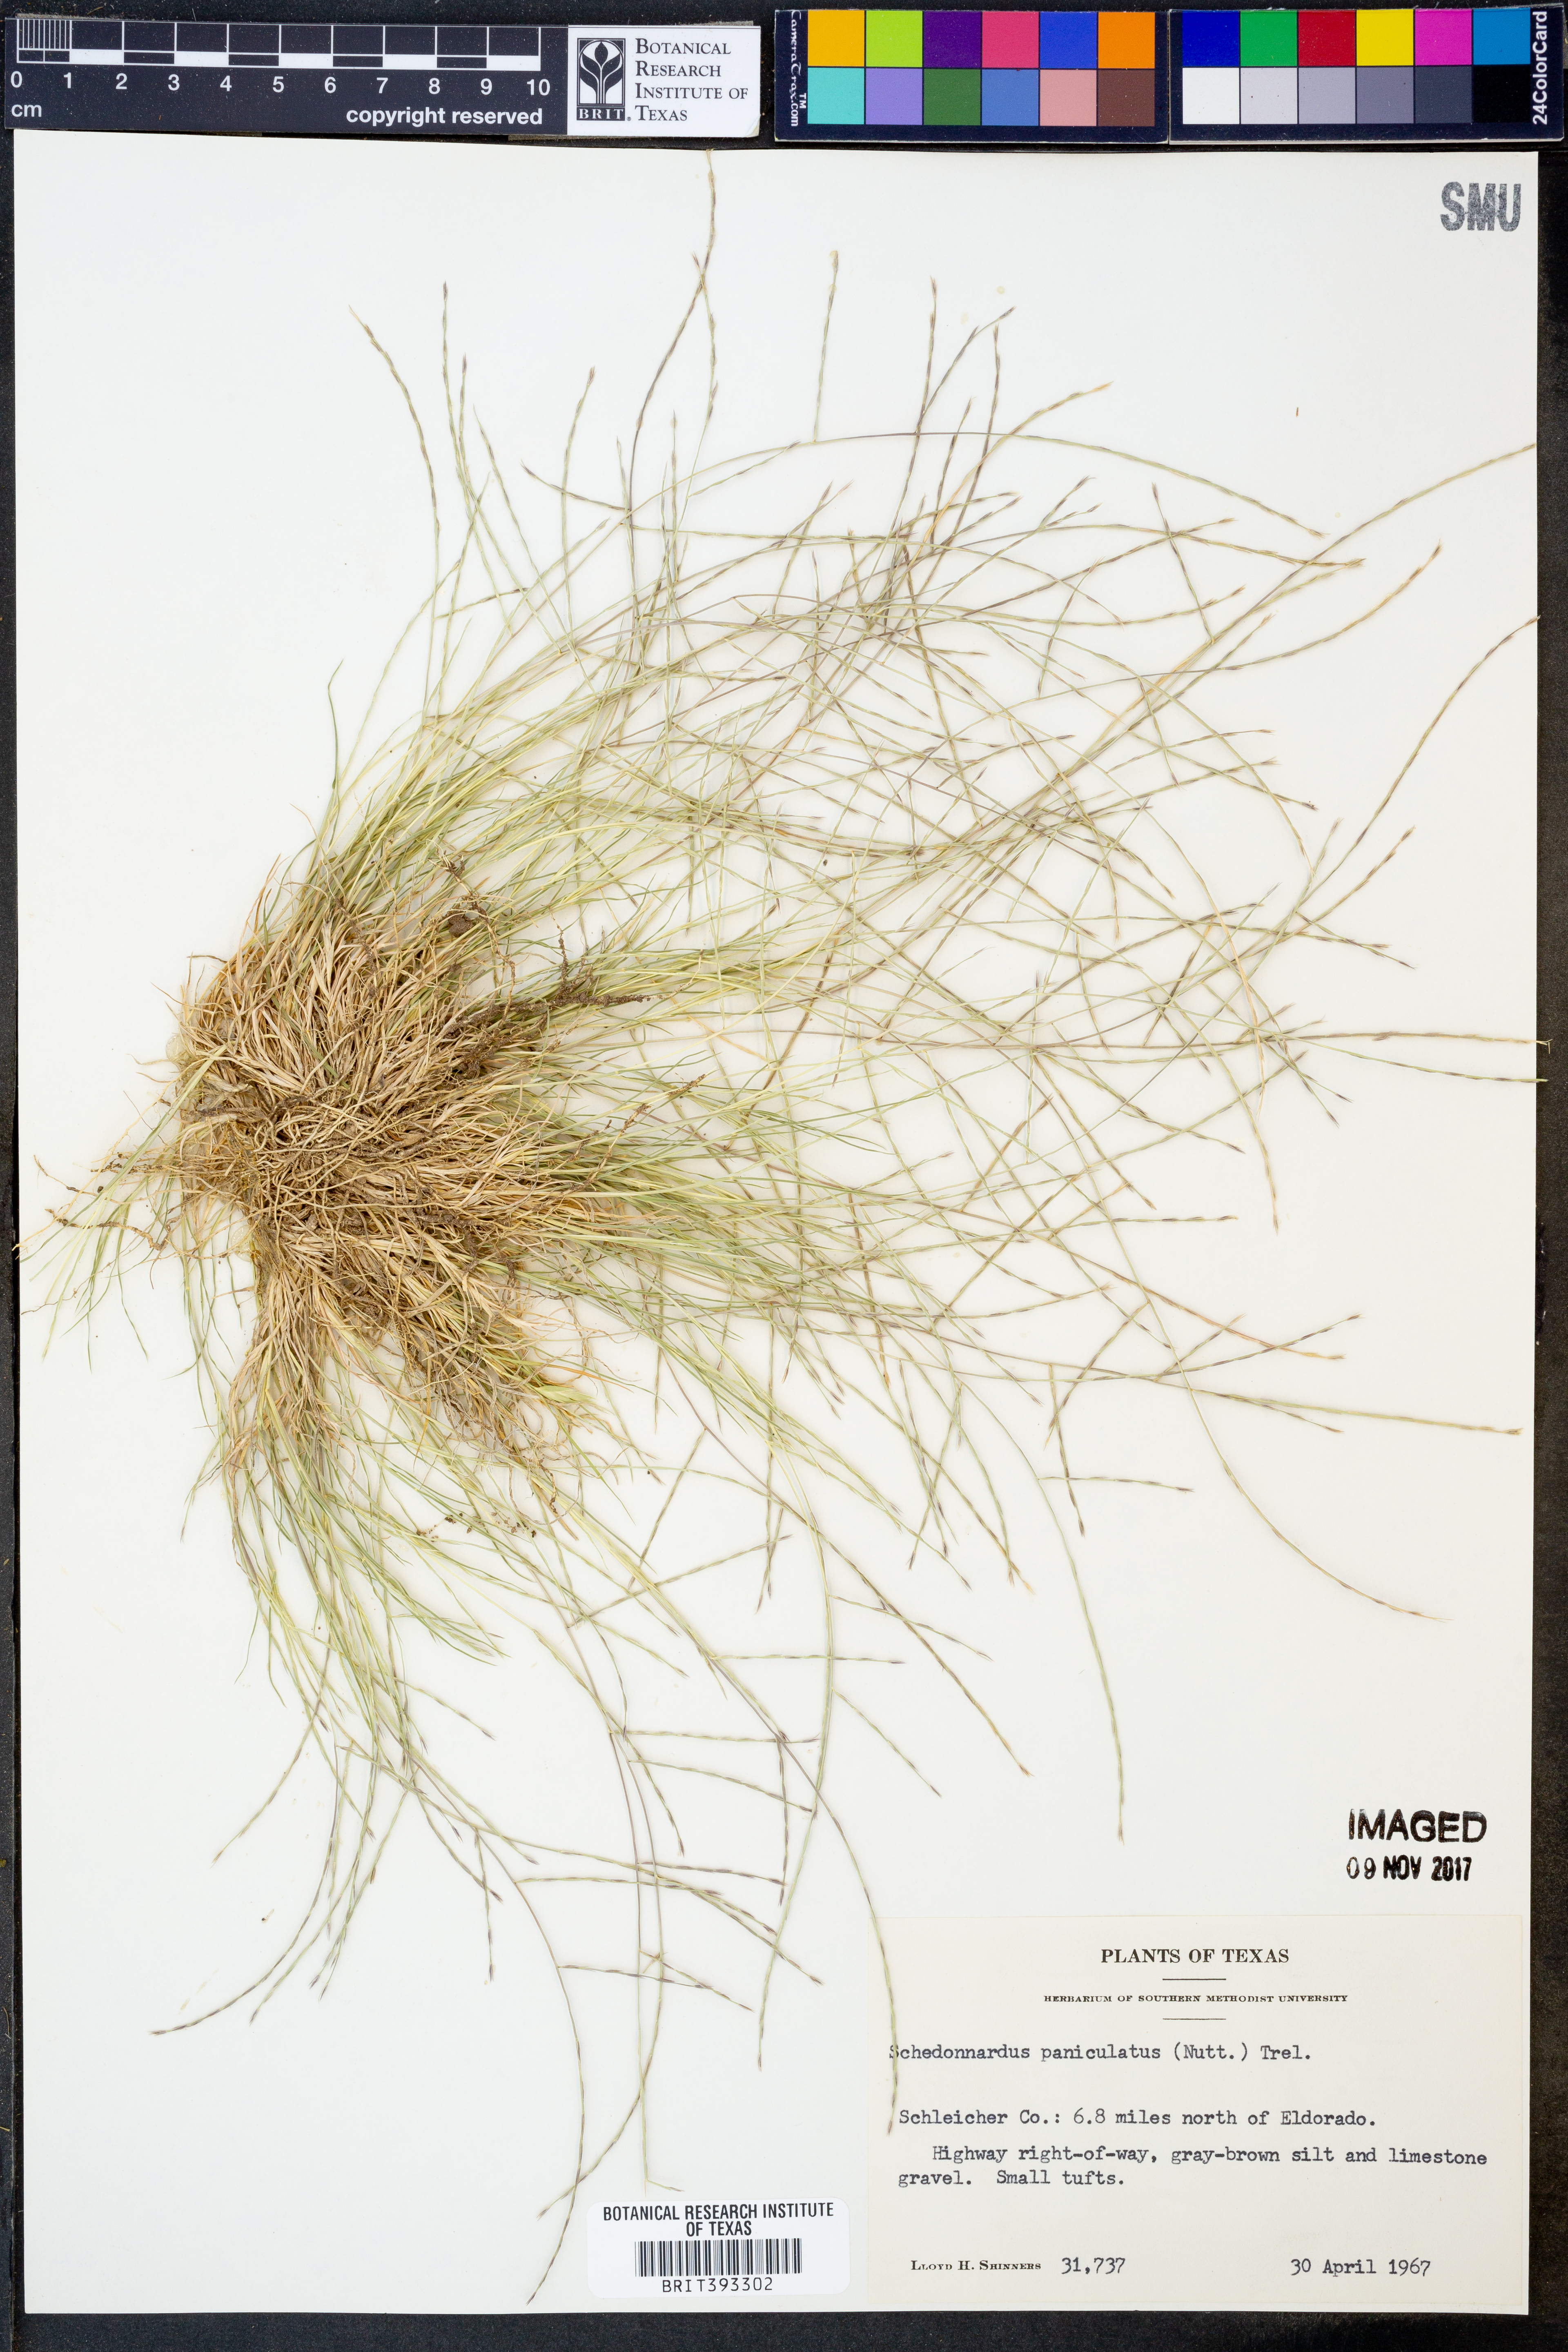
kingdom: Plantae
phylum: Tracheophyta
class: Liliopsida
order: Poales
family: Poaceae
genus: Muhlenbergia
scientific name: Muhlenbergia paniculata
